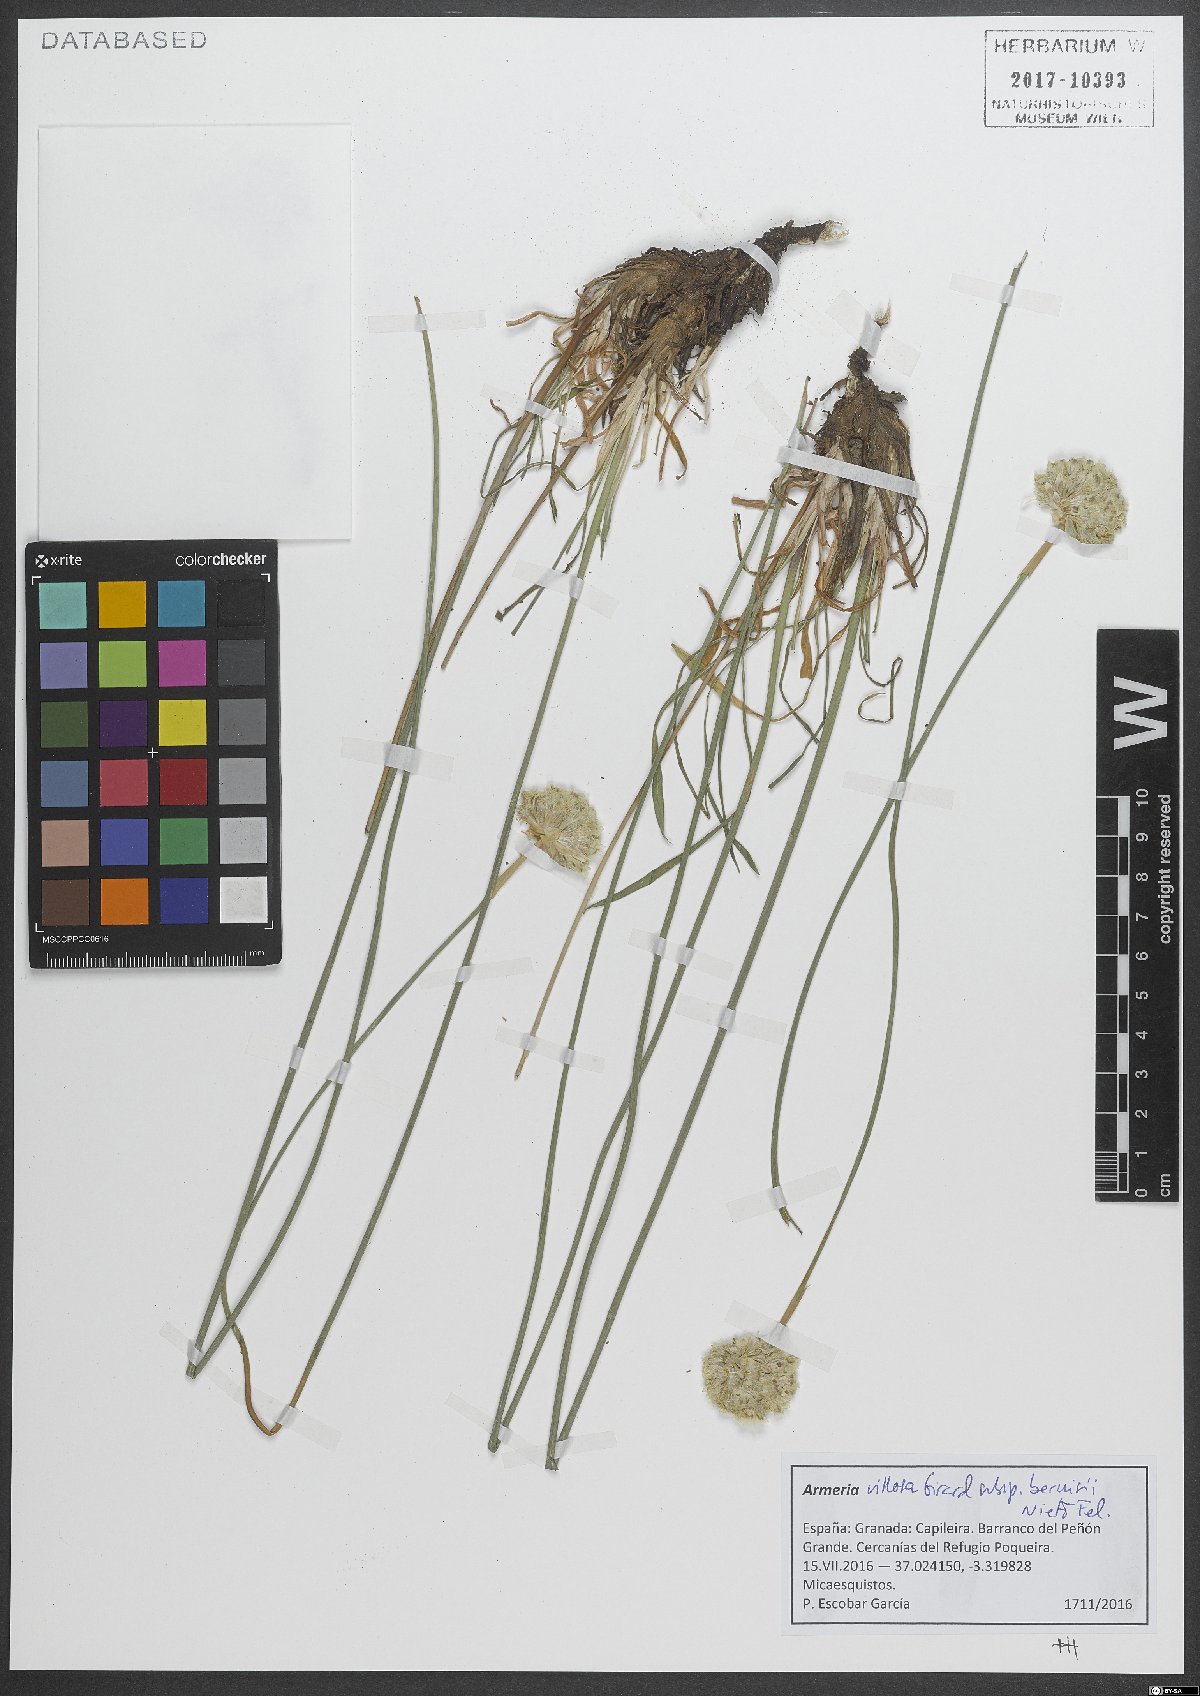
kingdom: Plantae
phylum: Tracheophyta
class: Magnoliopsida
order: Caryophyllales
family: Plumbaginaceae
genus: Armeria
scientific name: Armeria villosa
